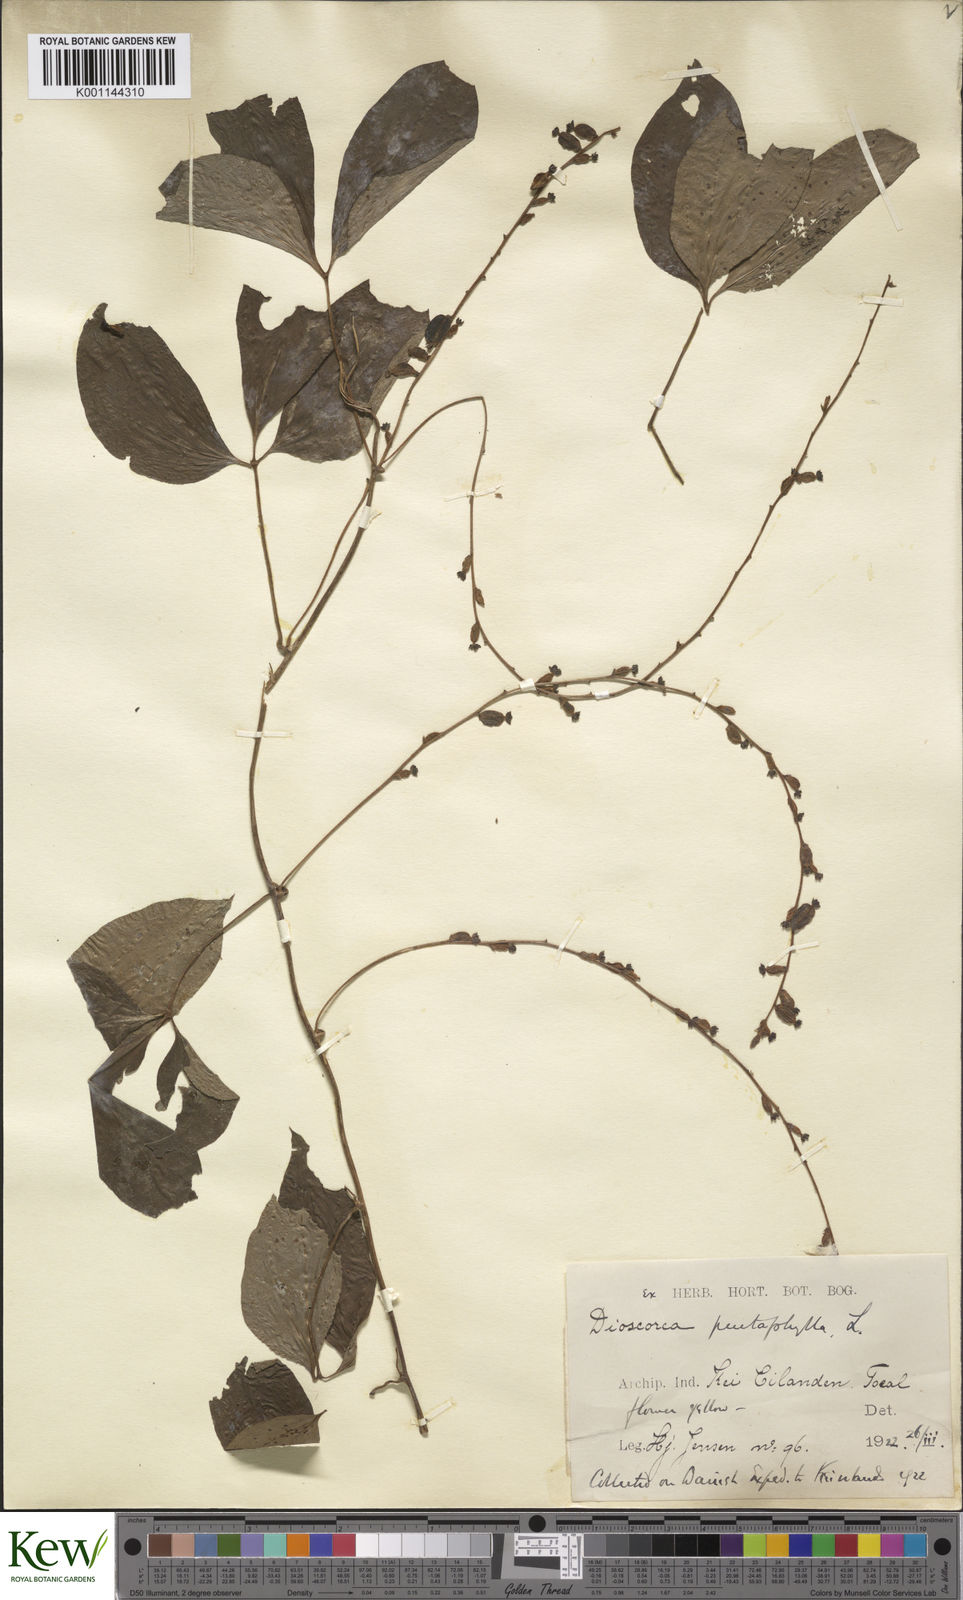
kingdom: Plantae
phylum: Tracheophyta
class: Liliopsida
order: Dioscoreales
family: Dioscoreaceae
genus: Dioscorea
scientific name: Dioscorea pentaphylla
